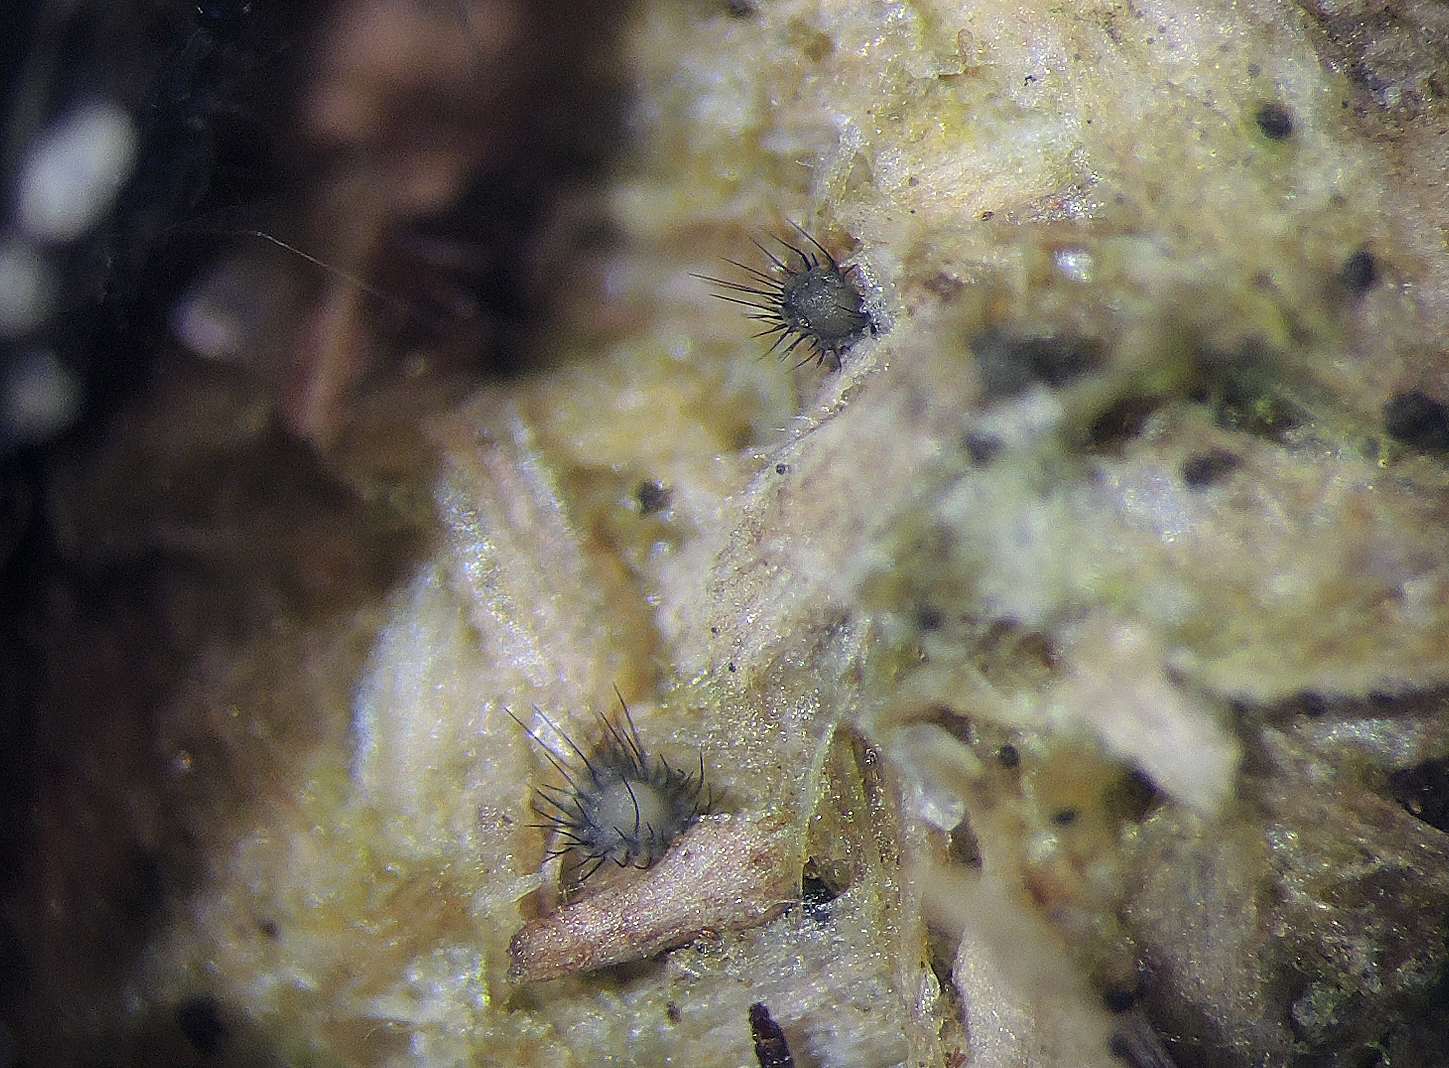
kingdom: Fungi
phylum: Ascomycota
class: Sordariomycetes
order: Phomatosporales
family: Phomatosporaceae
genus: Phomatospora
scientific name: Phomatospora dinemasporium
